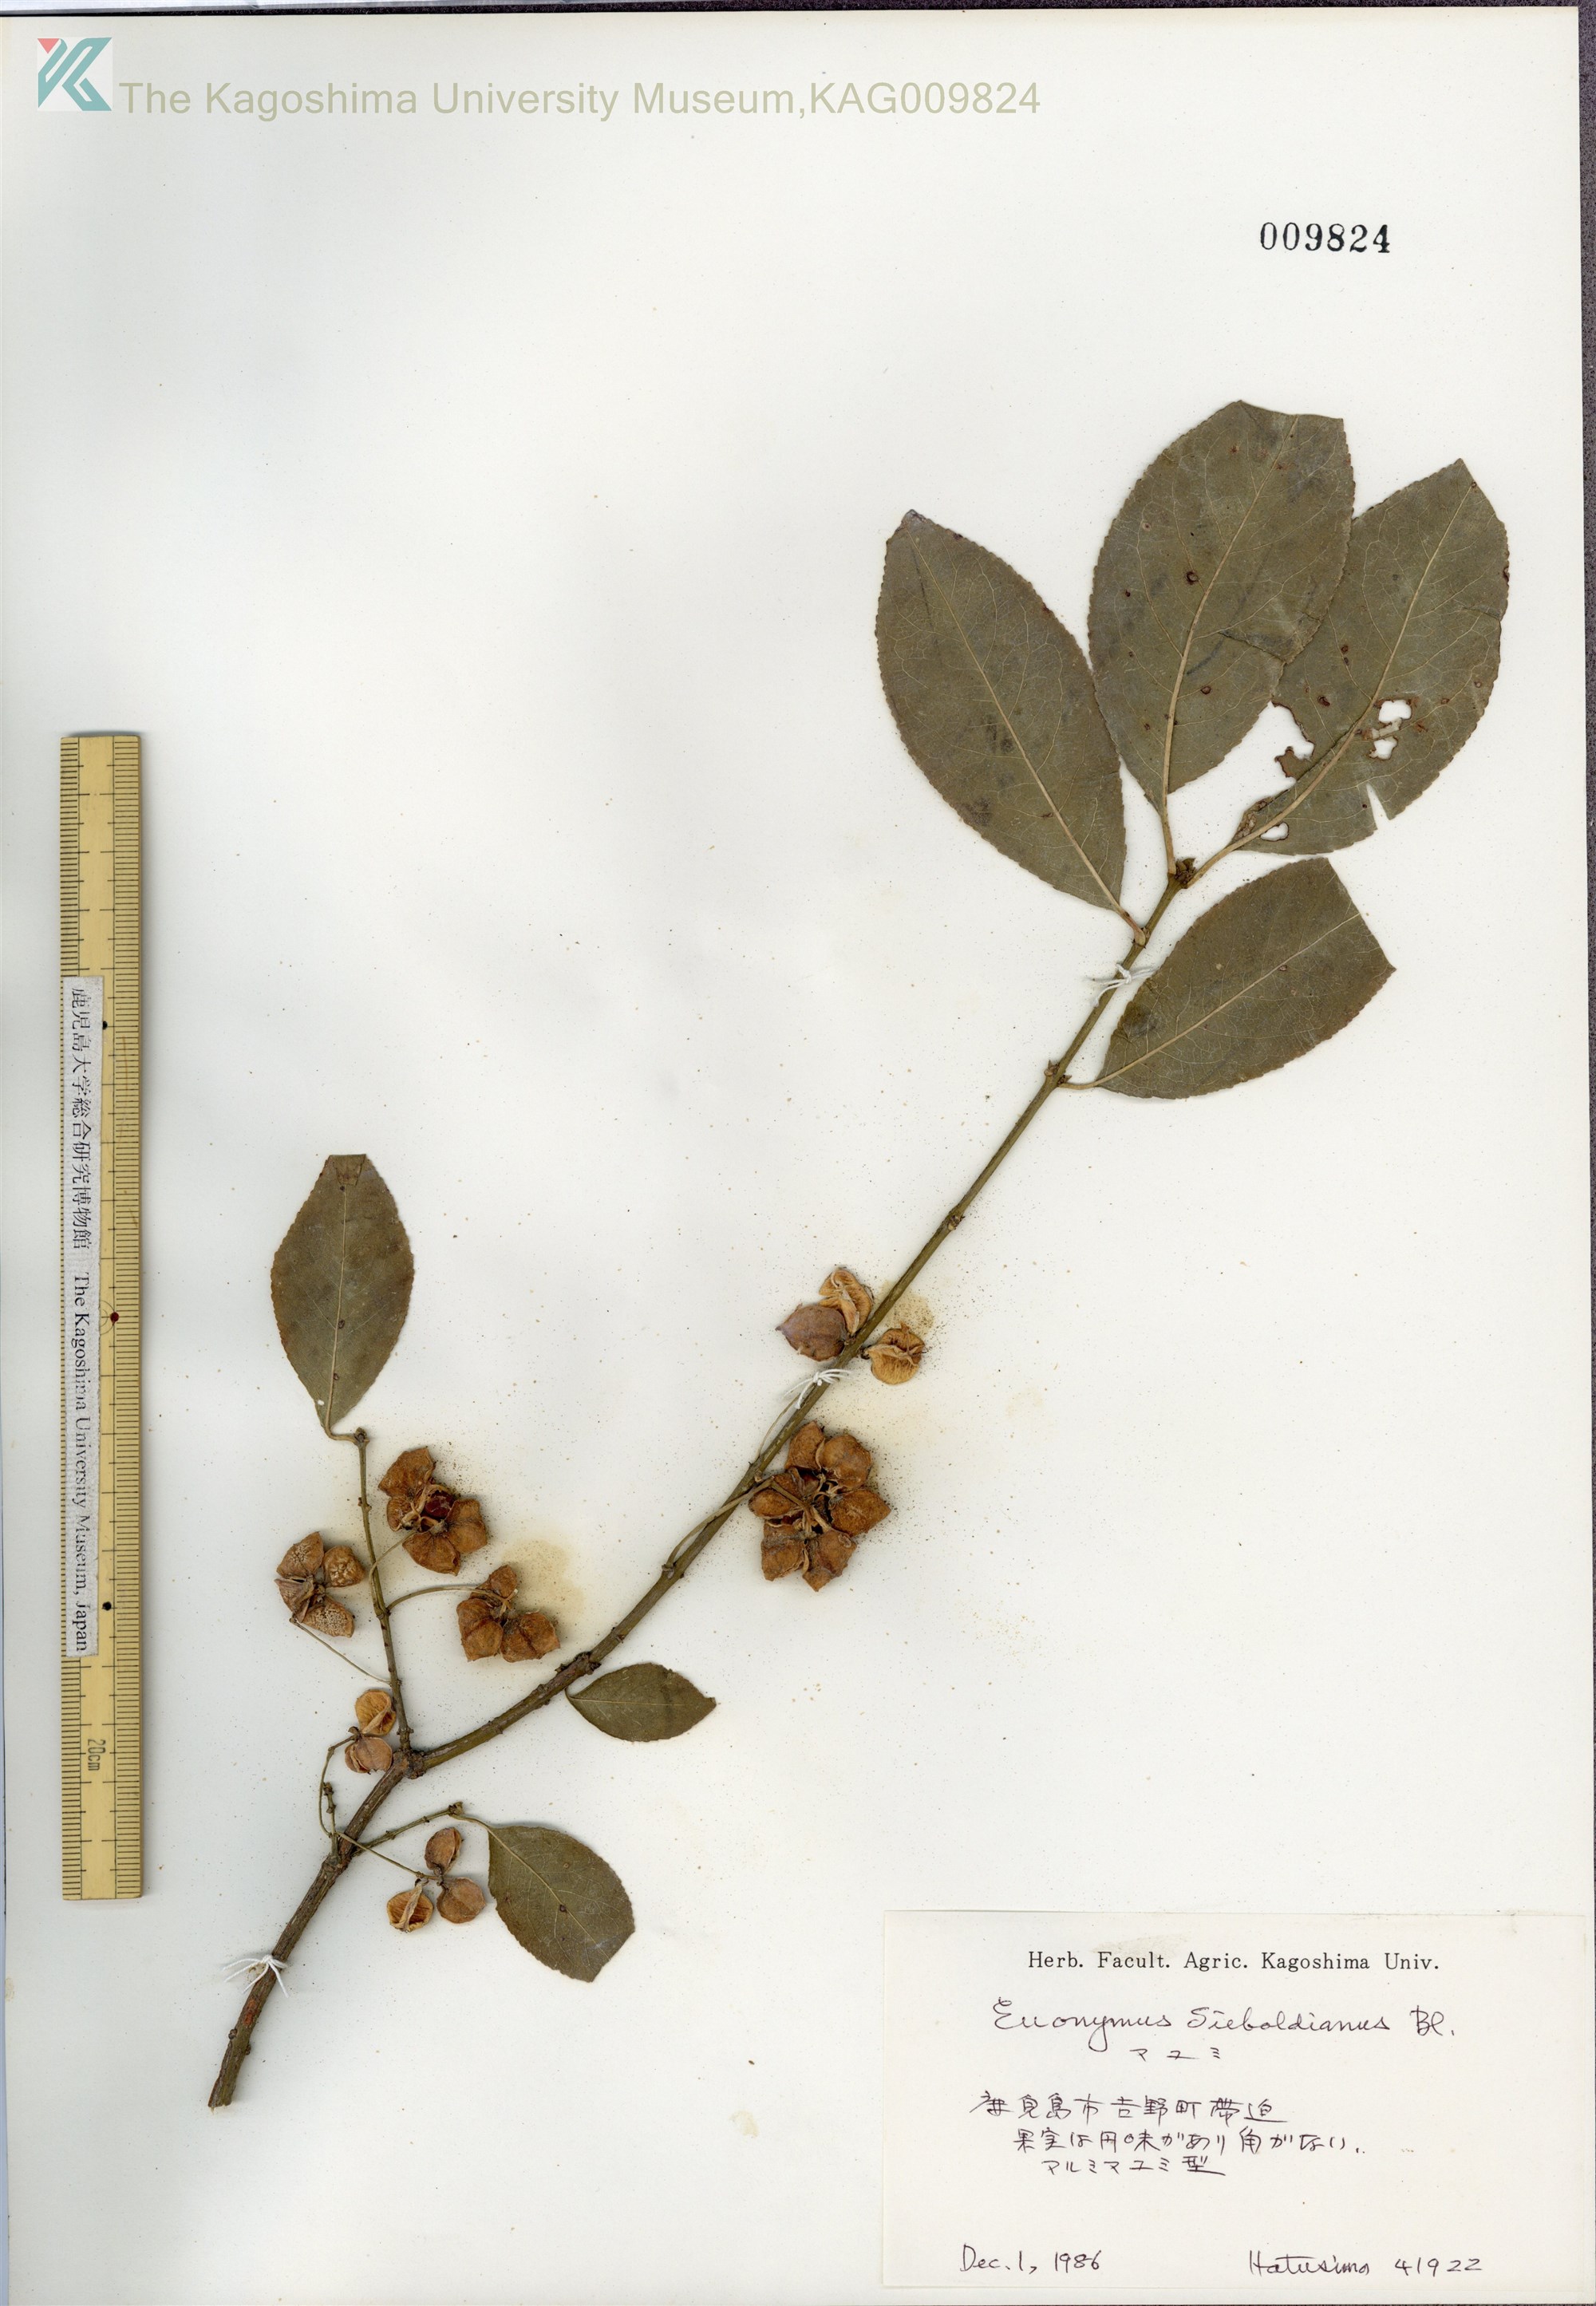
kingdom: Plantae
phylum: Tracheophyta
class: Magnoliopsida
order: Celastrales
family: Celastraceae
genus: Euonymus
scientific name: Euonymus hamiltonianus
